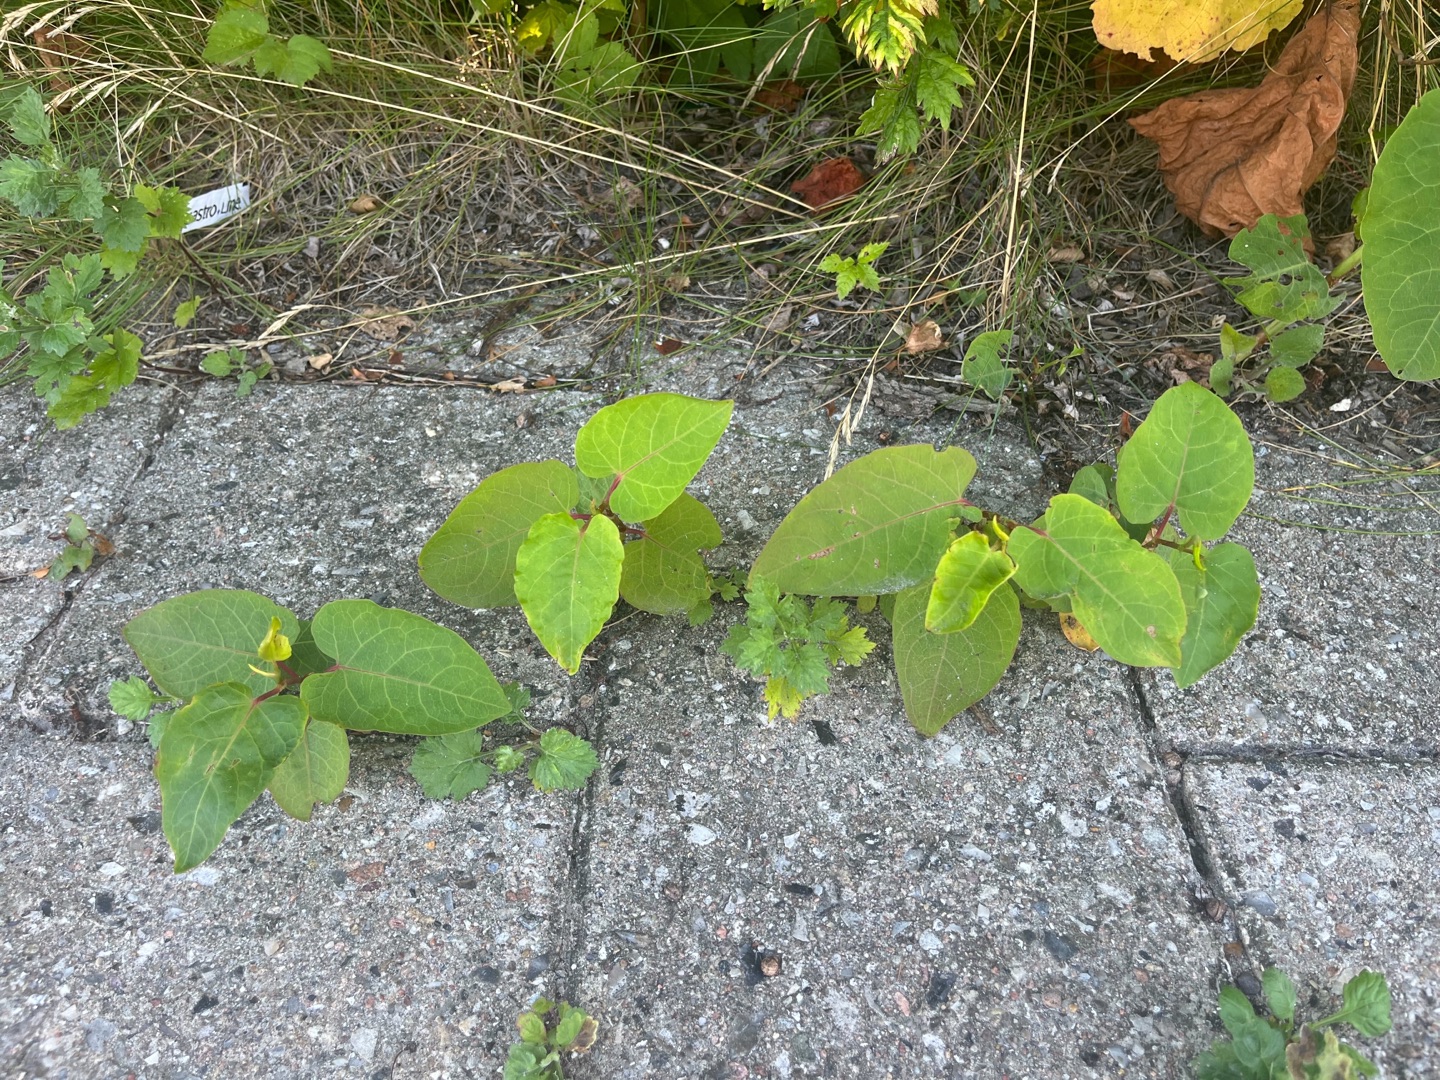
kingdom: Plantae
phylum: Tracheophyta
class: Magnoliopsida
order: Caryophyllales
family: Polygonaceae
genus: Reynoutria
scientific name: Reynoutria sachalinensis
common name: Kæmpe-pileurt
